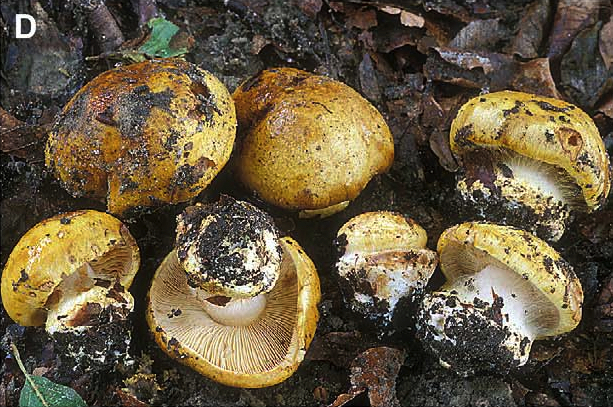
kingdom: Fungi
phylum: Basidiomycota
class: Agaricomycetes
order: Agaricales
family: Cortinariaceae
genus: Calonarius
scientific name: Calonarius langeorum
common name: Langes slørhat
